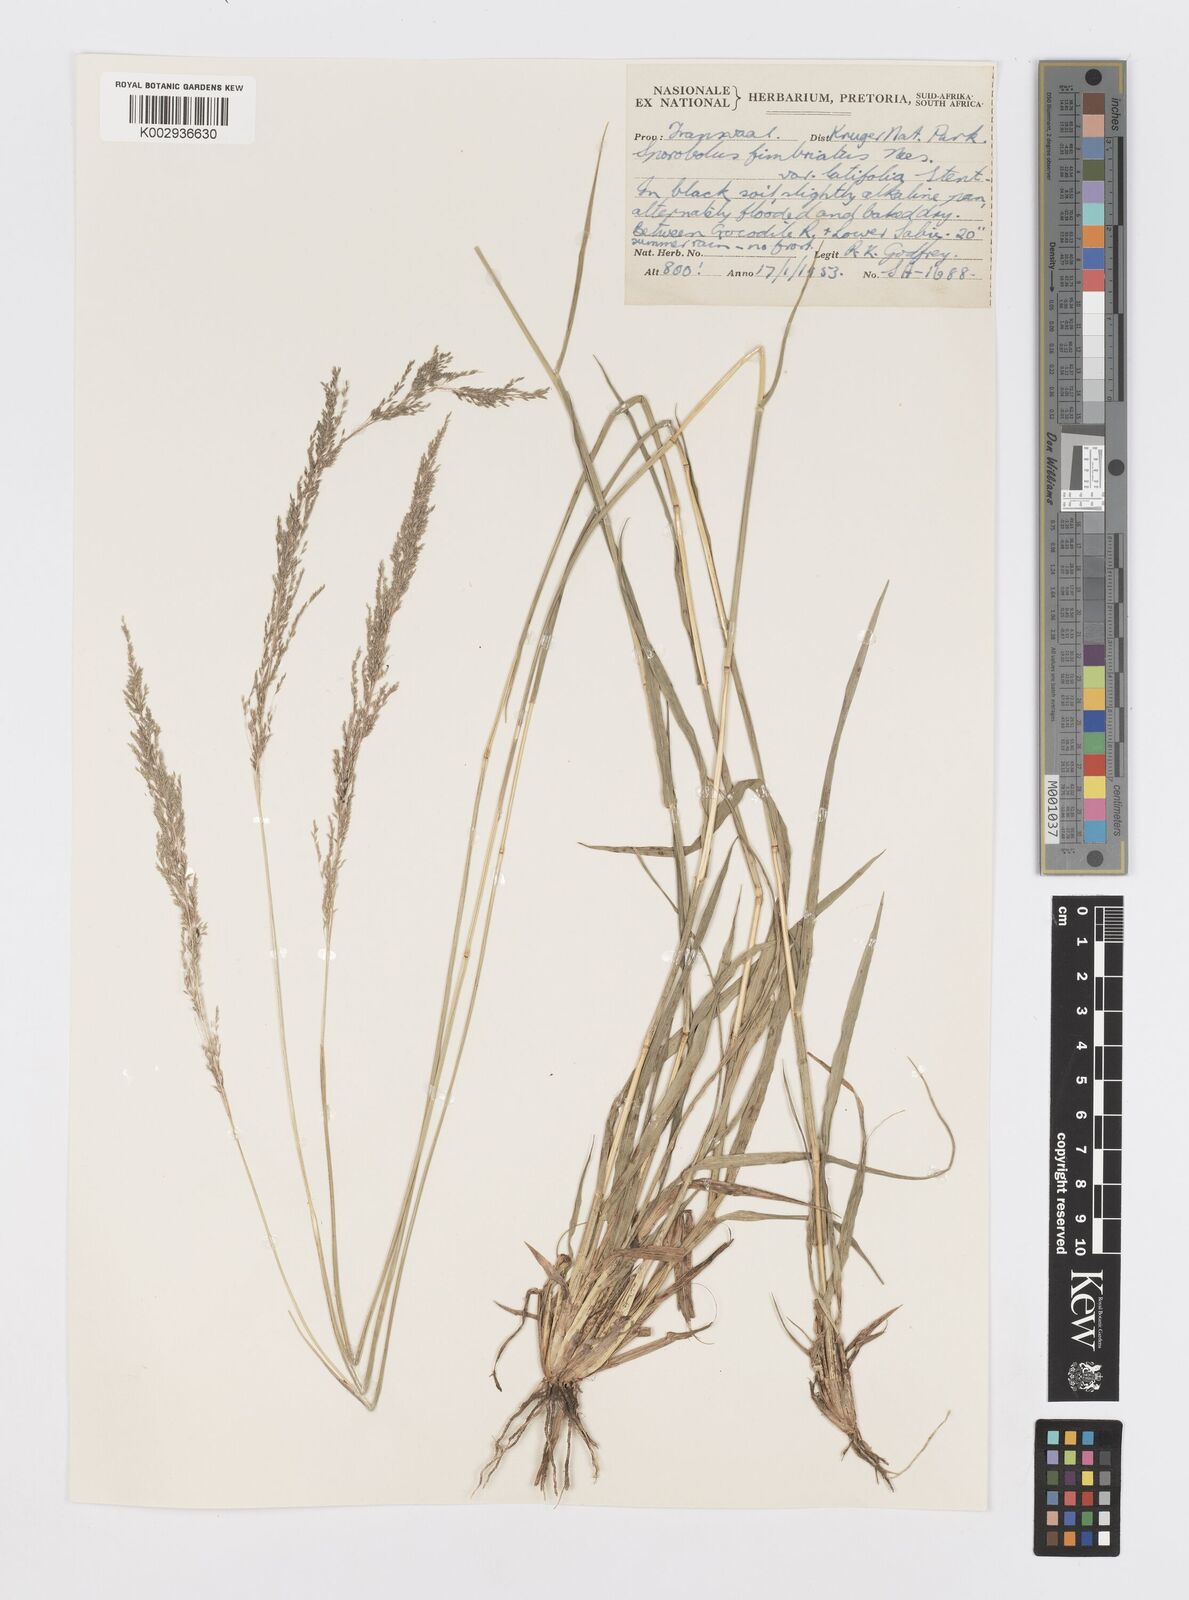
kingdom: Plantae
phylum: Tracheophyta
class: Liliopsida
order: Poales
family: Poaceae
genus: Sporobolus
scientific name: Sporobolus fimbriatus
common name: Fringed dropseed
